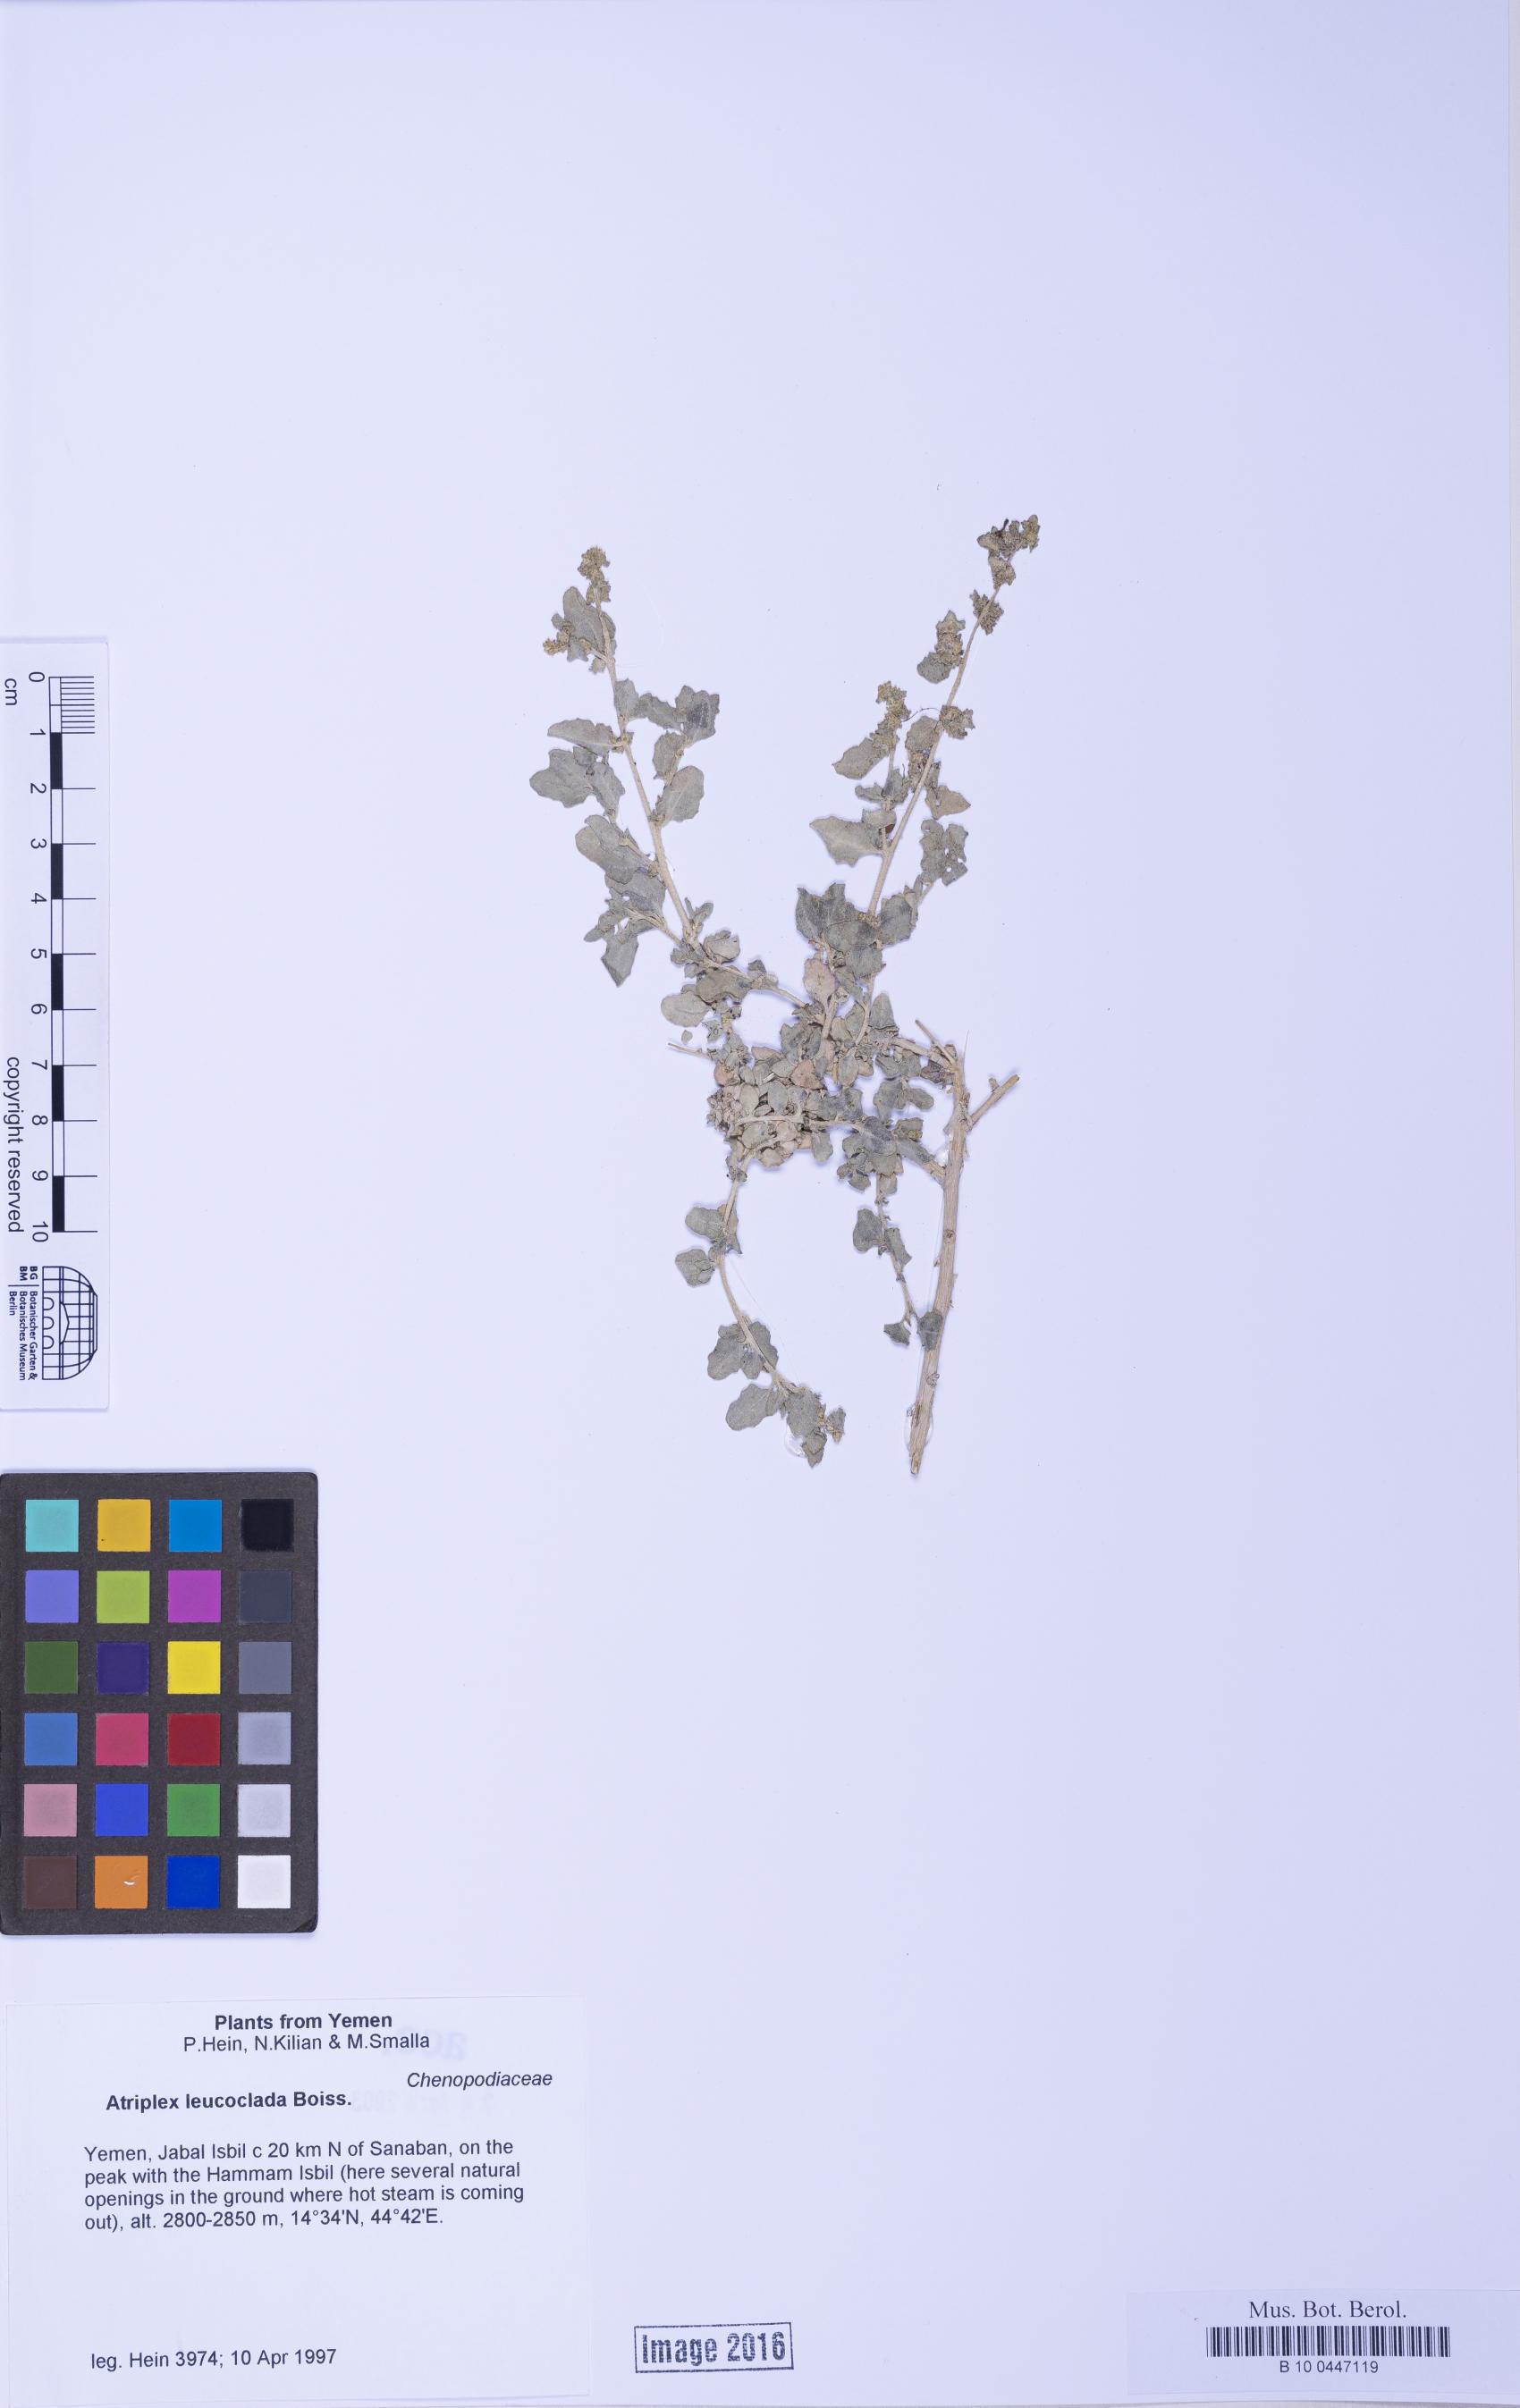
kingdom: Plantae
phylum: Tracheophyta
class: Magnoliopsida
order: Caryophyllales
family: Amaranthaceae
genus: Atriplex
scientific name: Atriplex turcomanica
